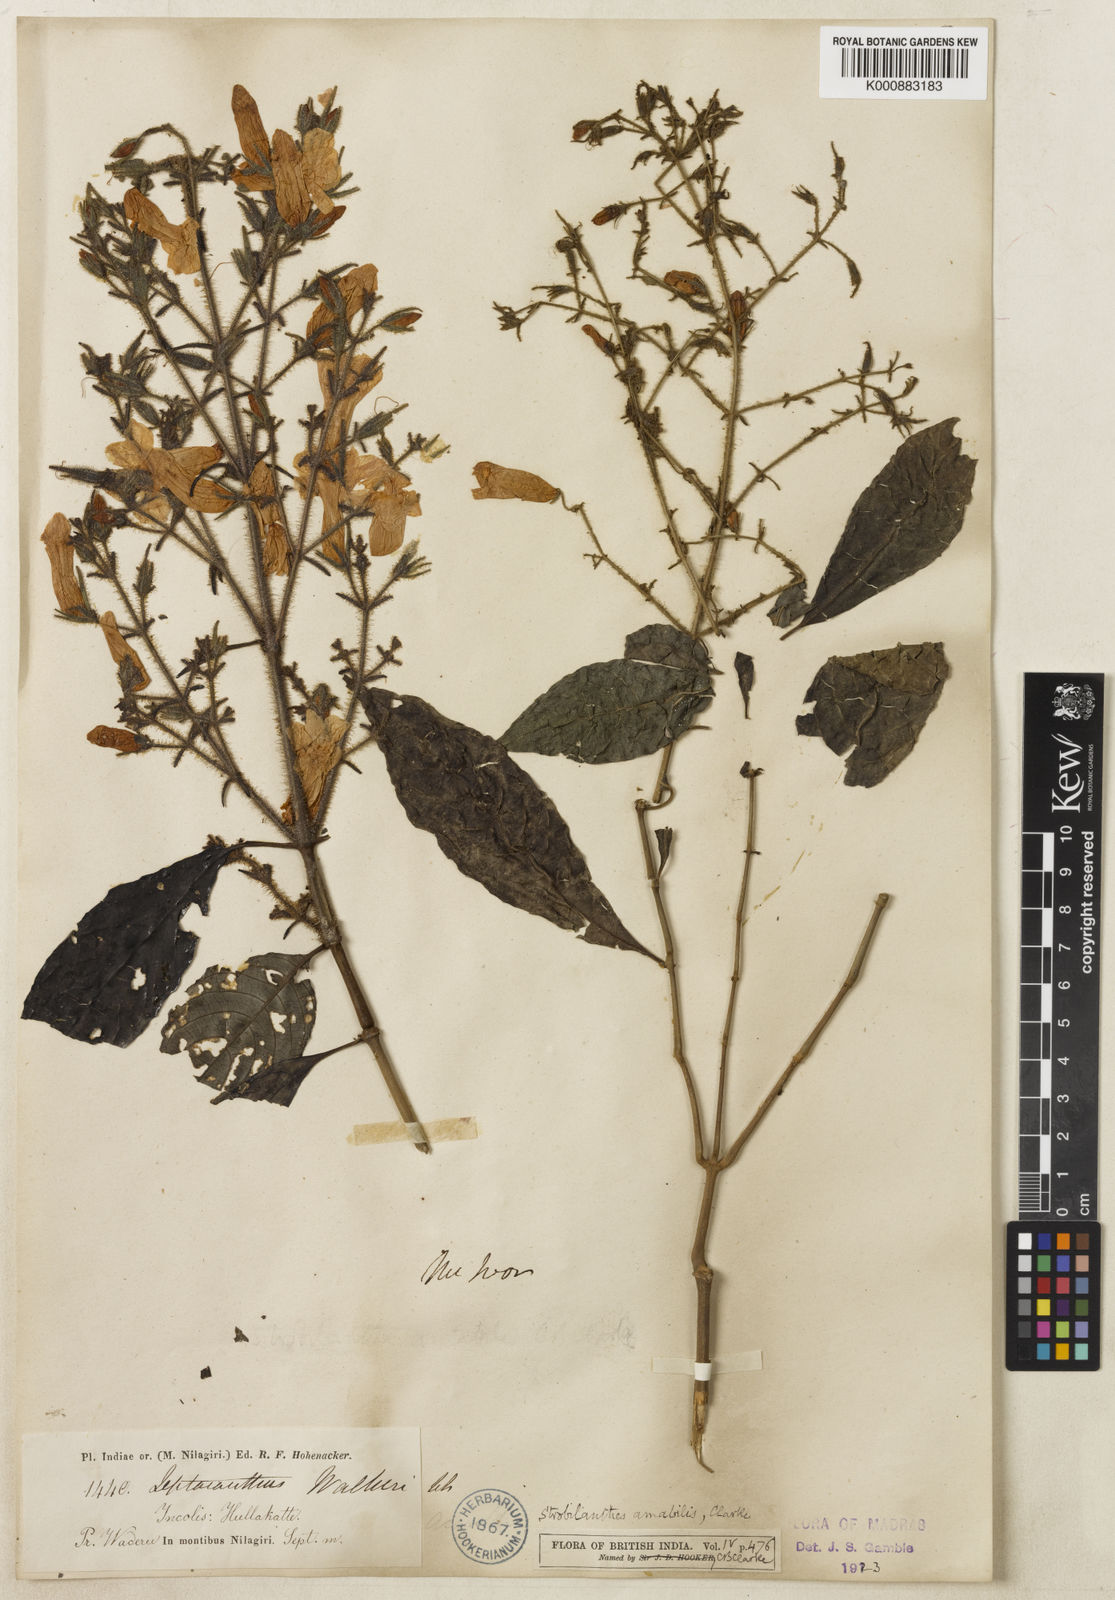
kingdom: Plantae
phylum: Tracheophyta
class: Magnoliopsida
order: Lamiales
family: Acanthaceae
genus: Strobilanthes
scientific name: Strobilanthes amabilis
